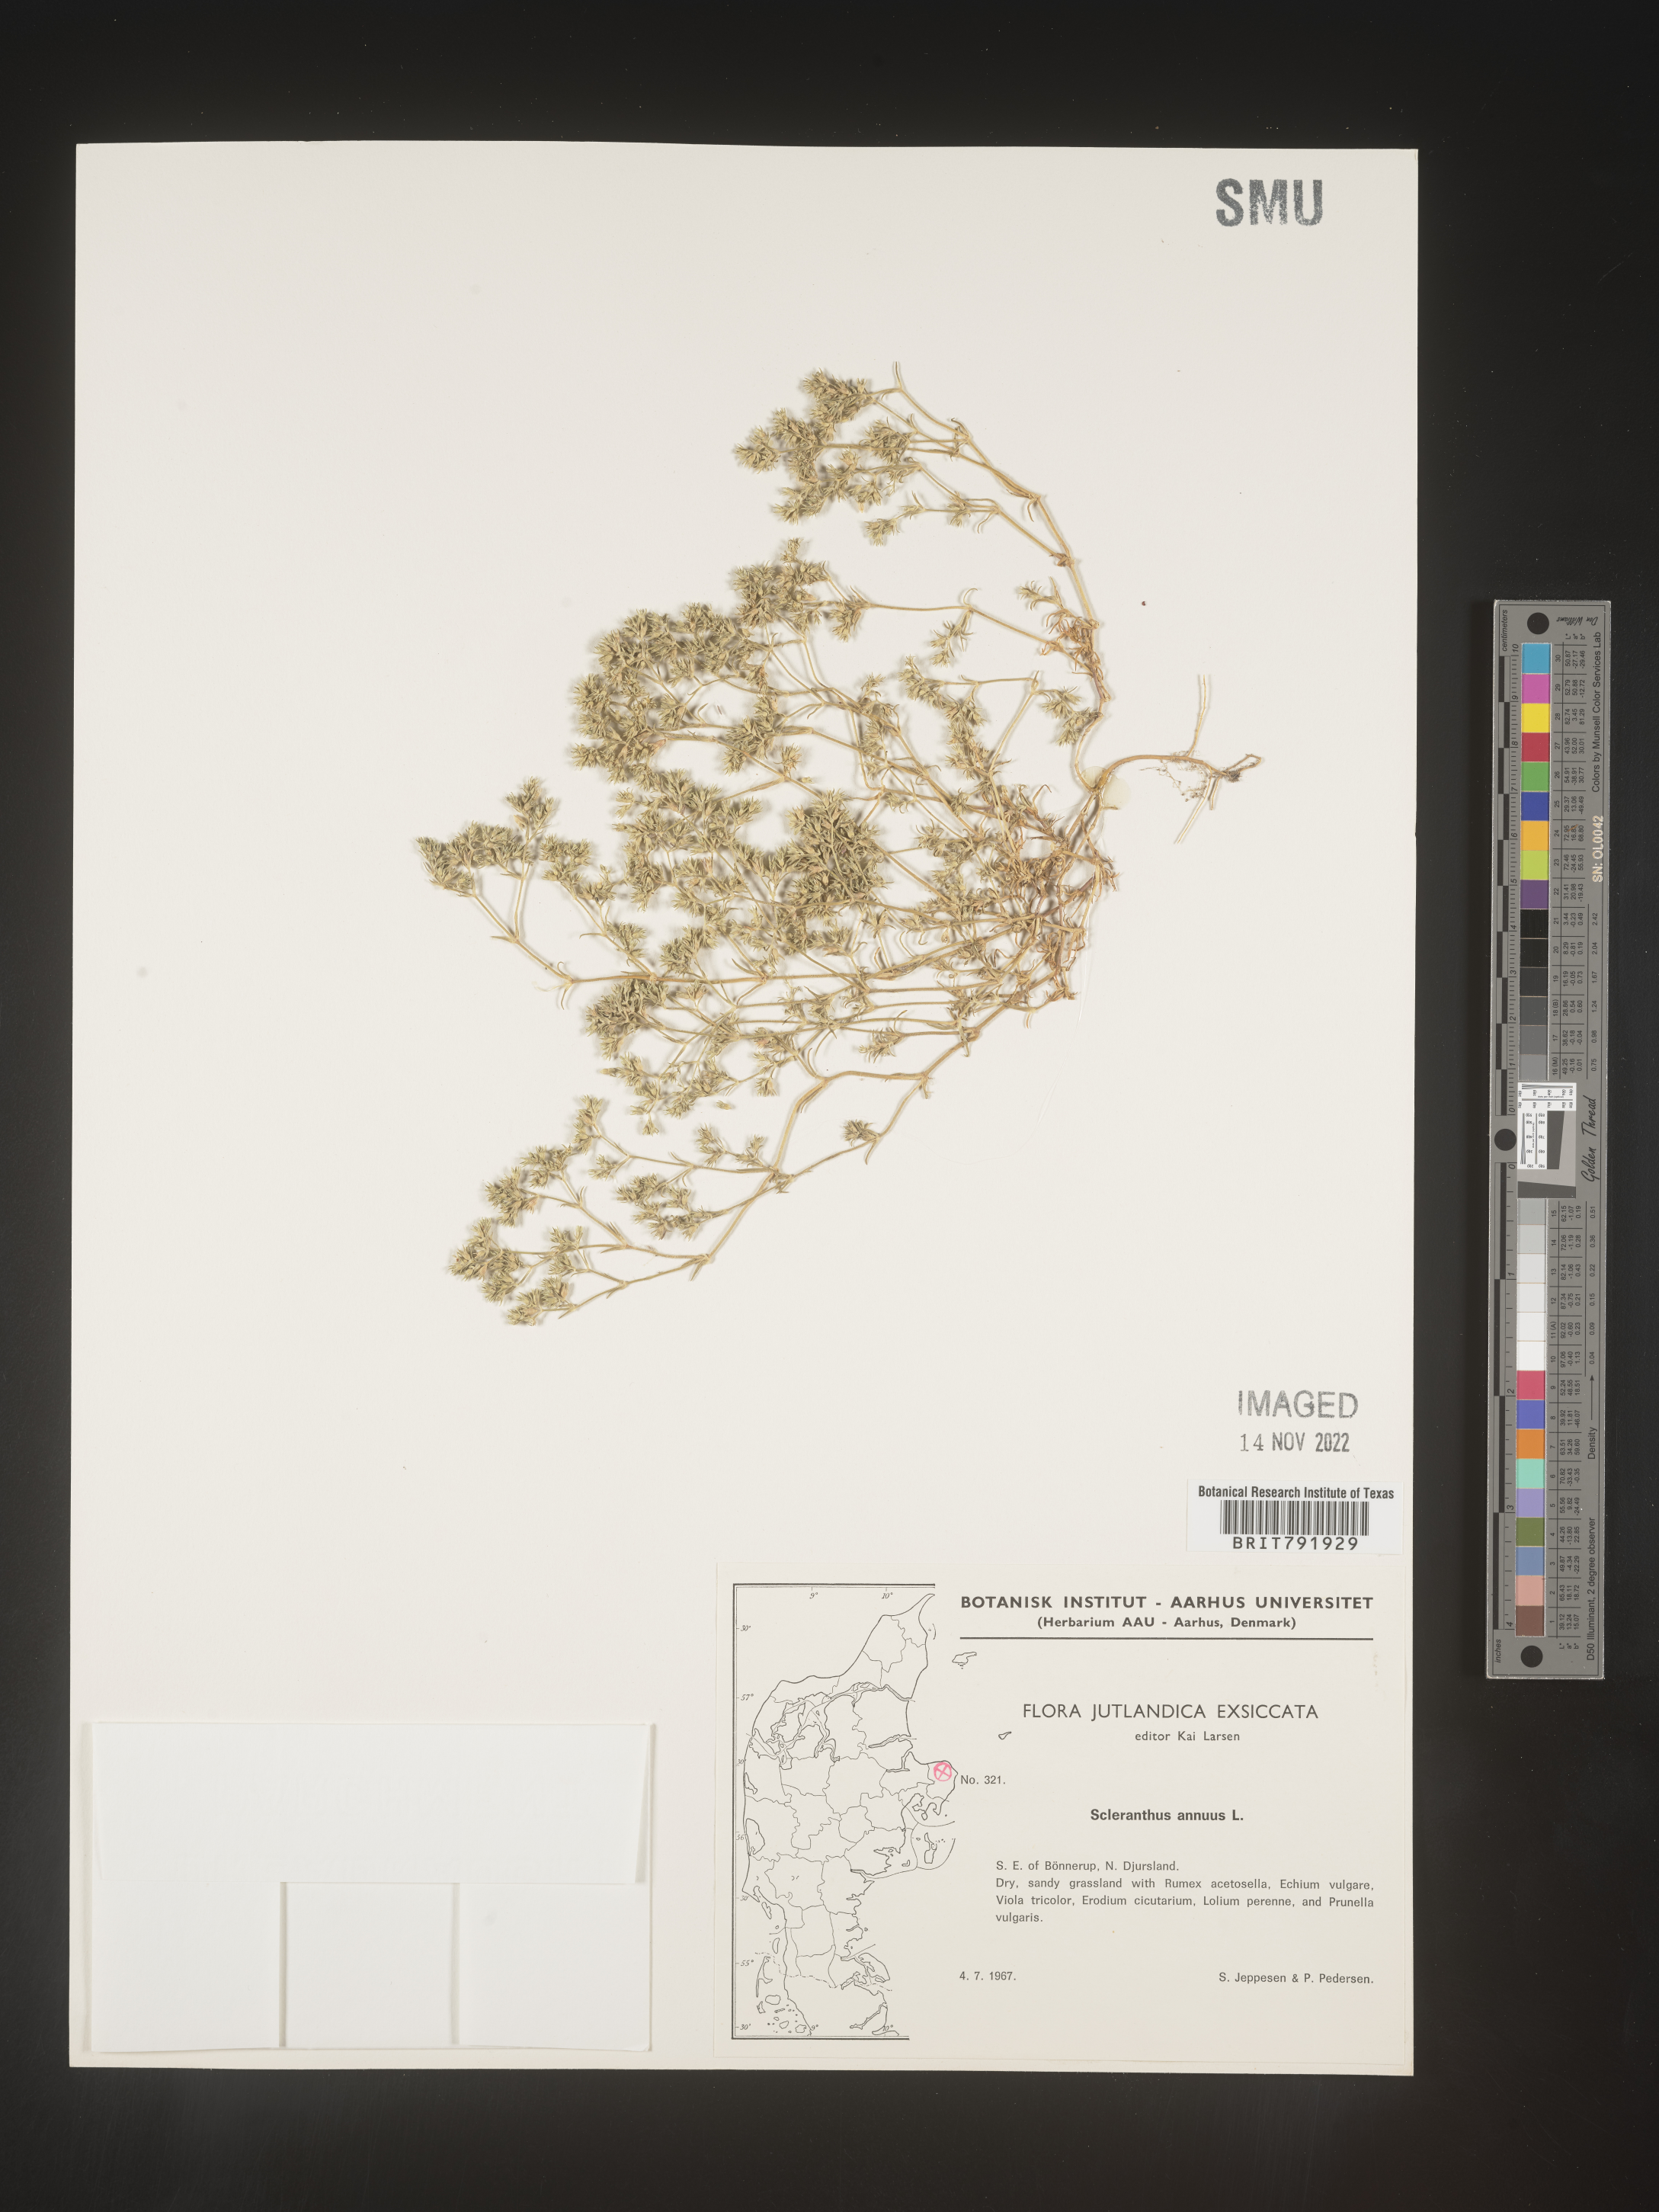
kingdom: Plantae
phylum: Tracheophyta
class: Magnoliopsida
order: Caryophyllales
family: Caryophyllaceae
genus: Scleranthus
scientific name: Scleranthus
